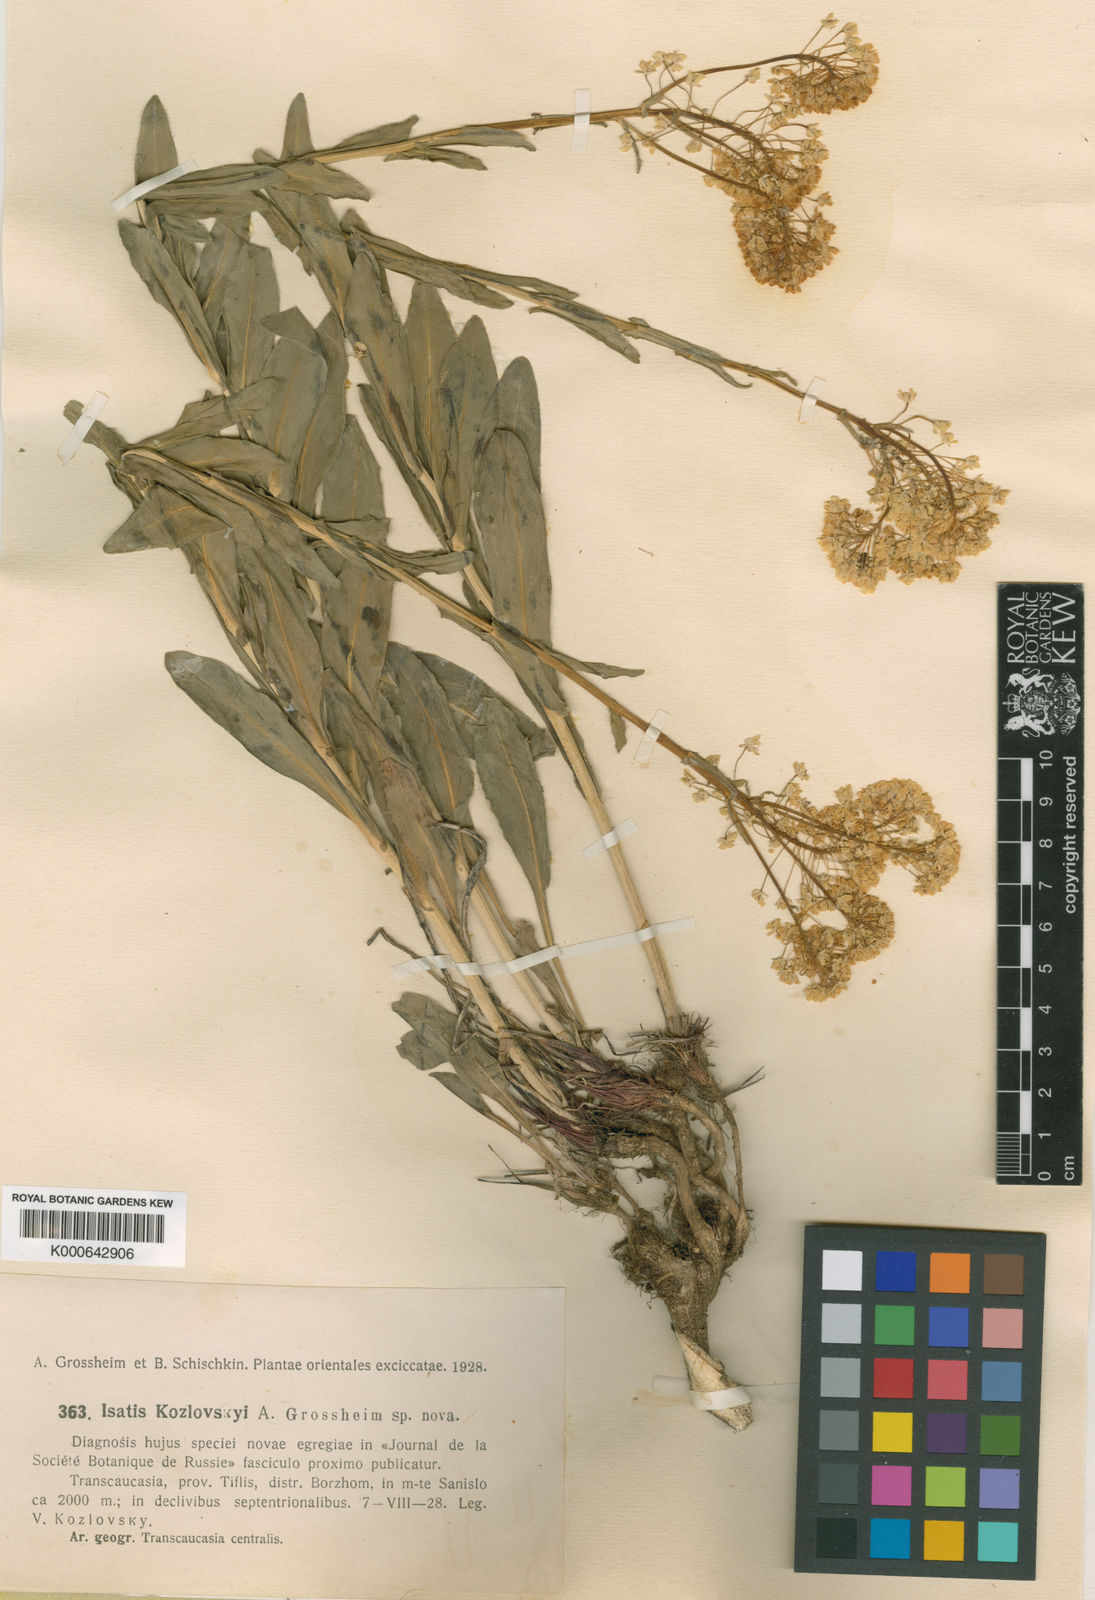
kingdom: Plantae
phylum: Tracheophyta
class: Magnoliopsida
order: Brassicales
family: Brassicaceae
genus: Isatis
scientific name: Isatis kozlovskyi
